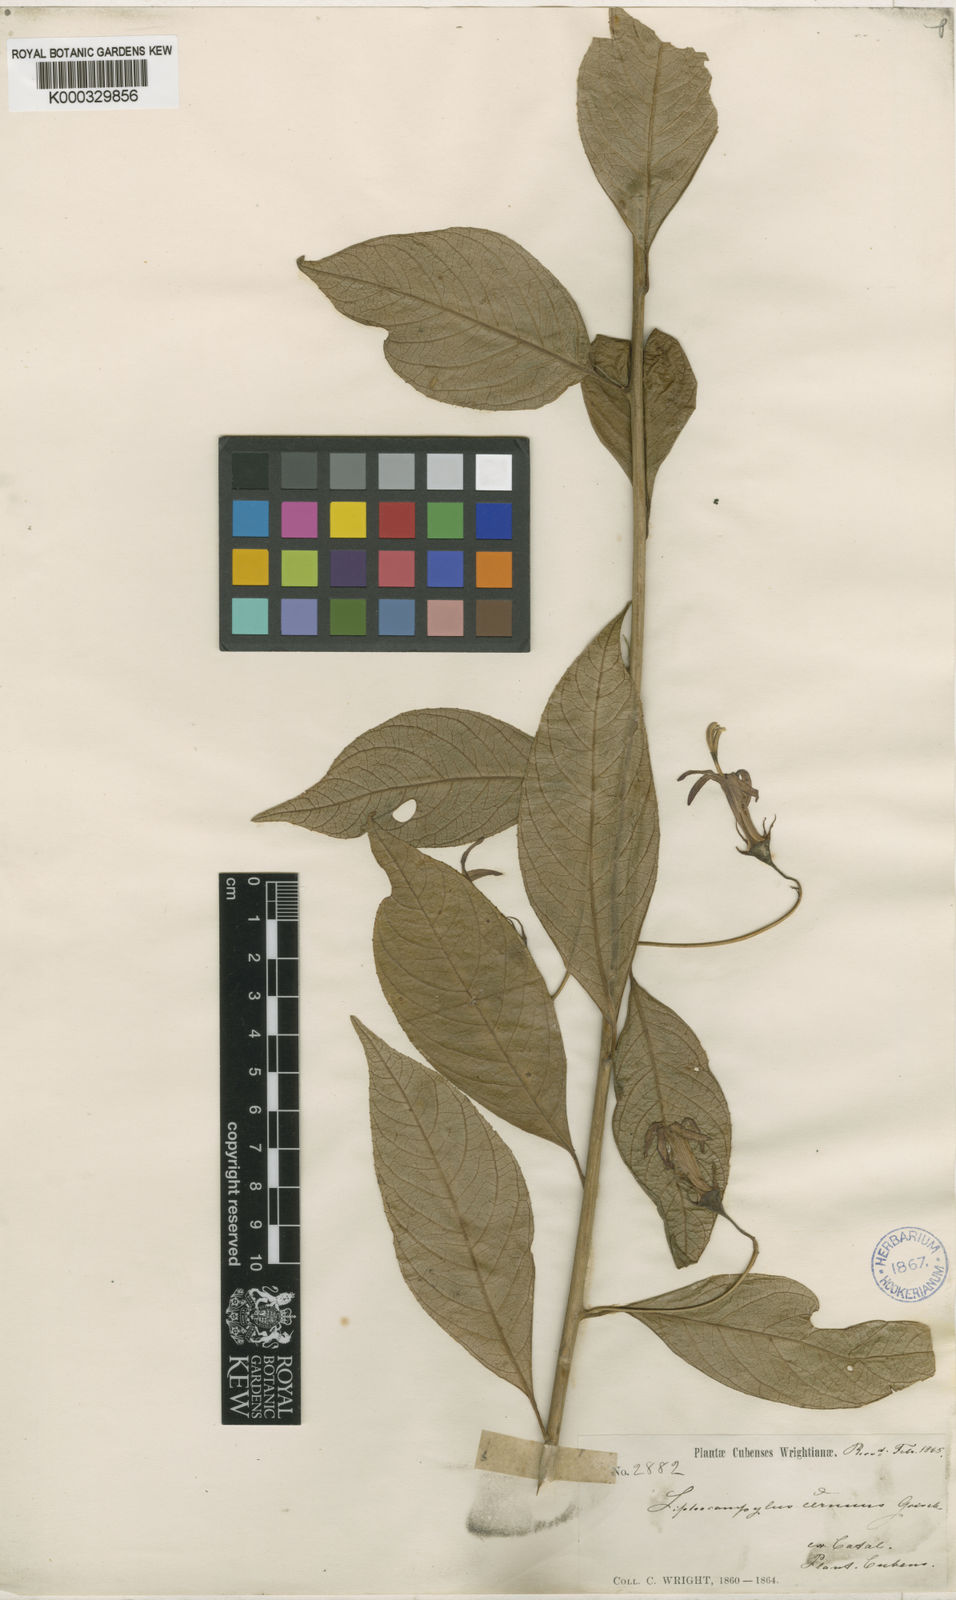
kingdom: Plantae
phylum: Tracheophyta
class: Magnoliopsida
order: Asterales
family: Campanulaceae
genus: Siphocampylus
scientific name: Siphocampylus cernuus
